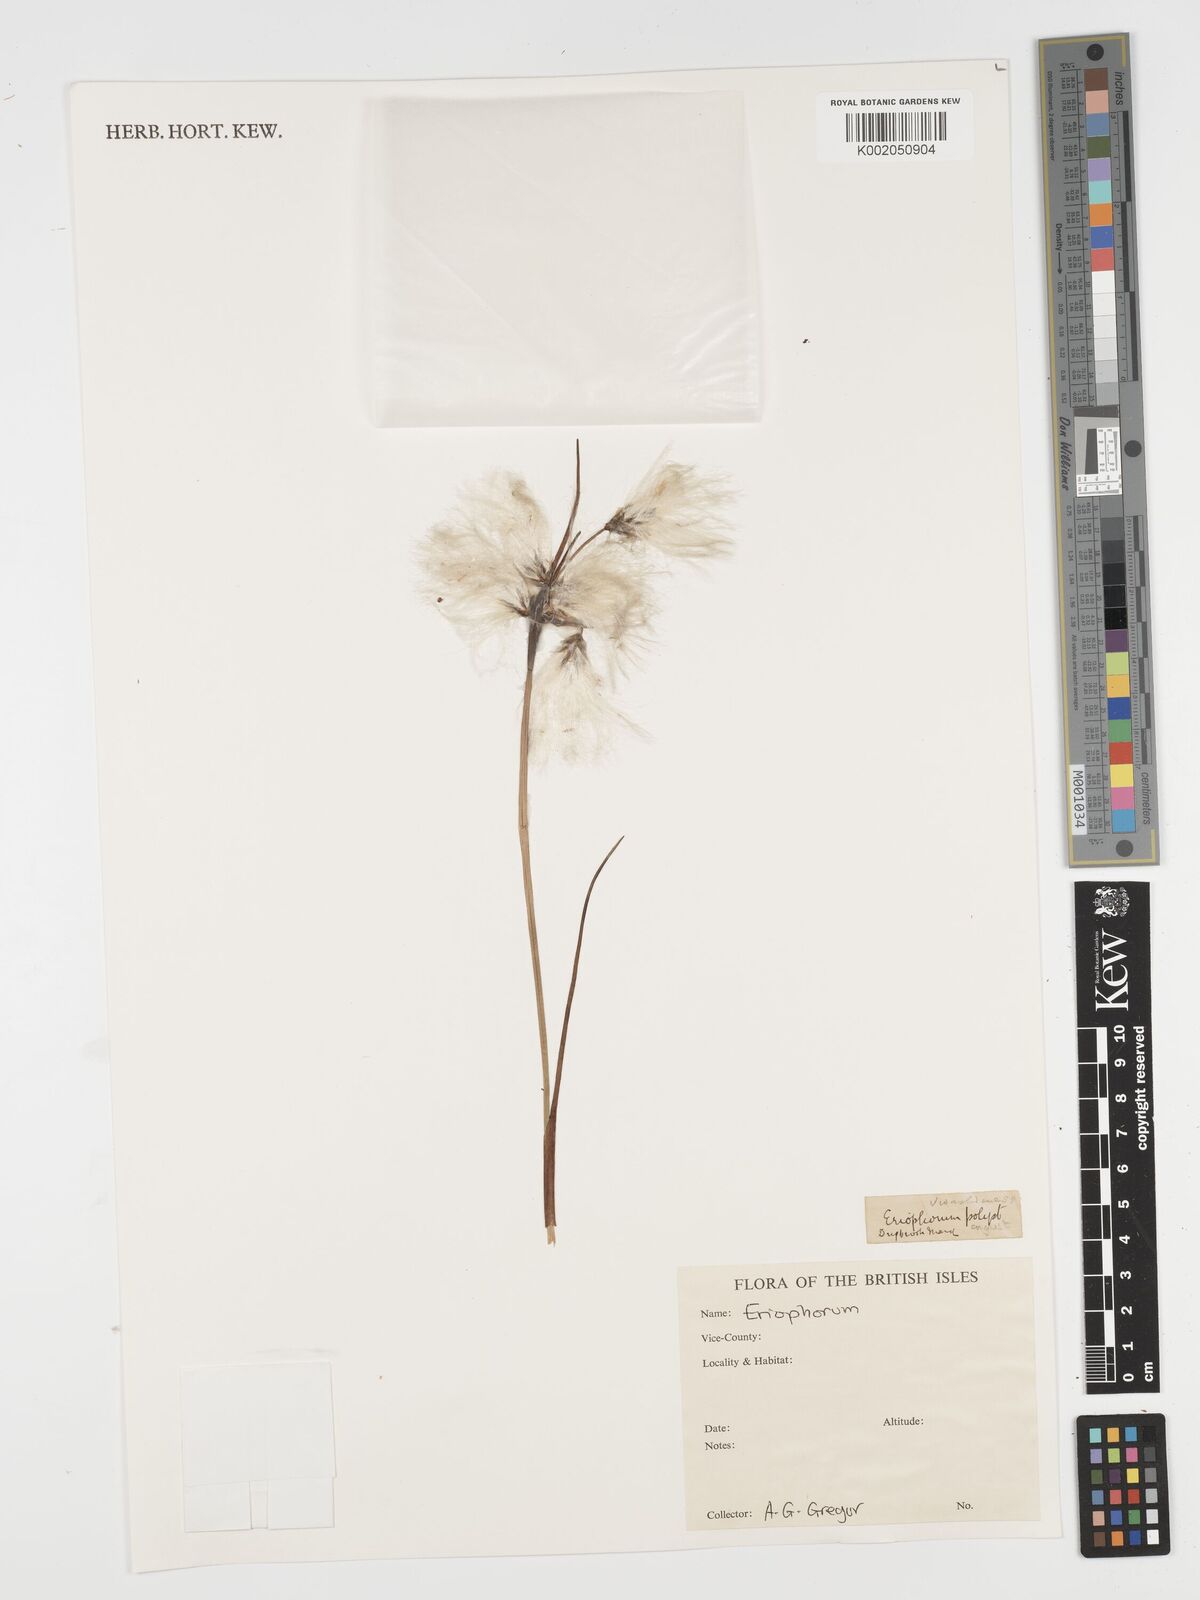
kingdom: Plantae
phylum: Tracheophyta
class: Liliopsida
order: Poales
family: Cyperaceae
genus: Eriophorum
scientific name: Eriophorum angustifolium
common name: Common cottongrass
